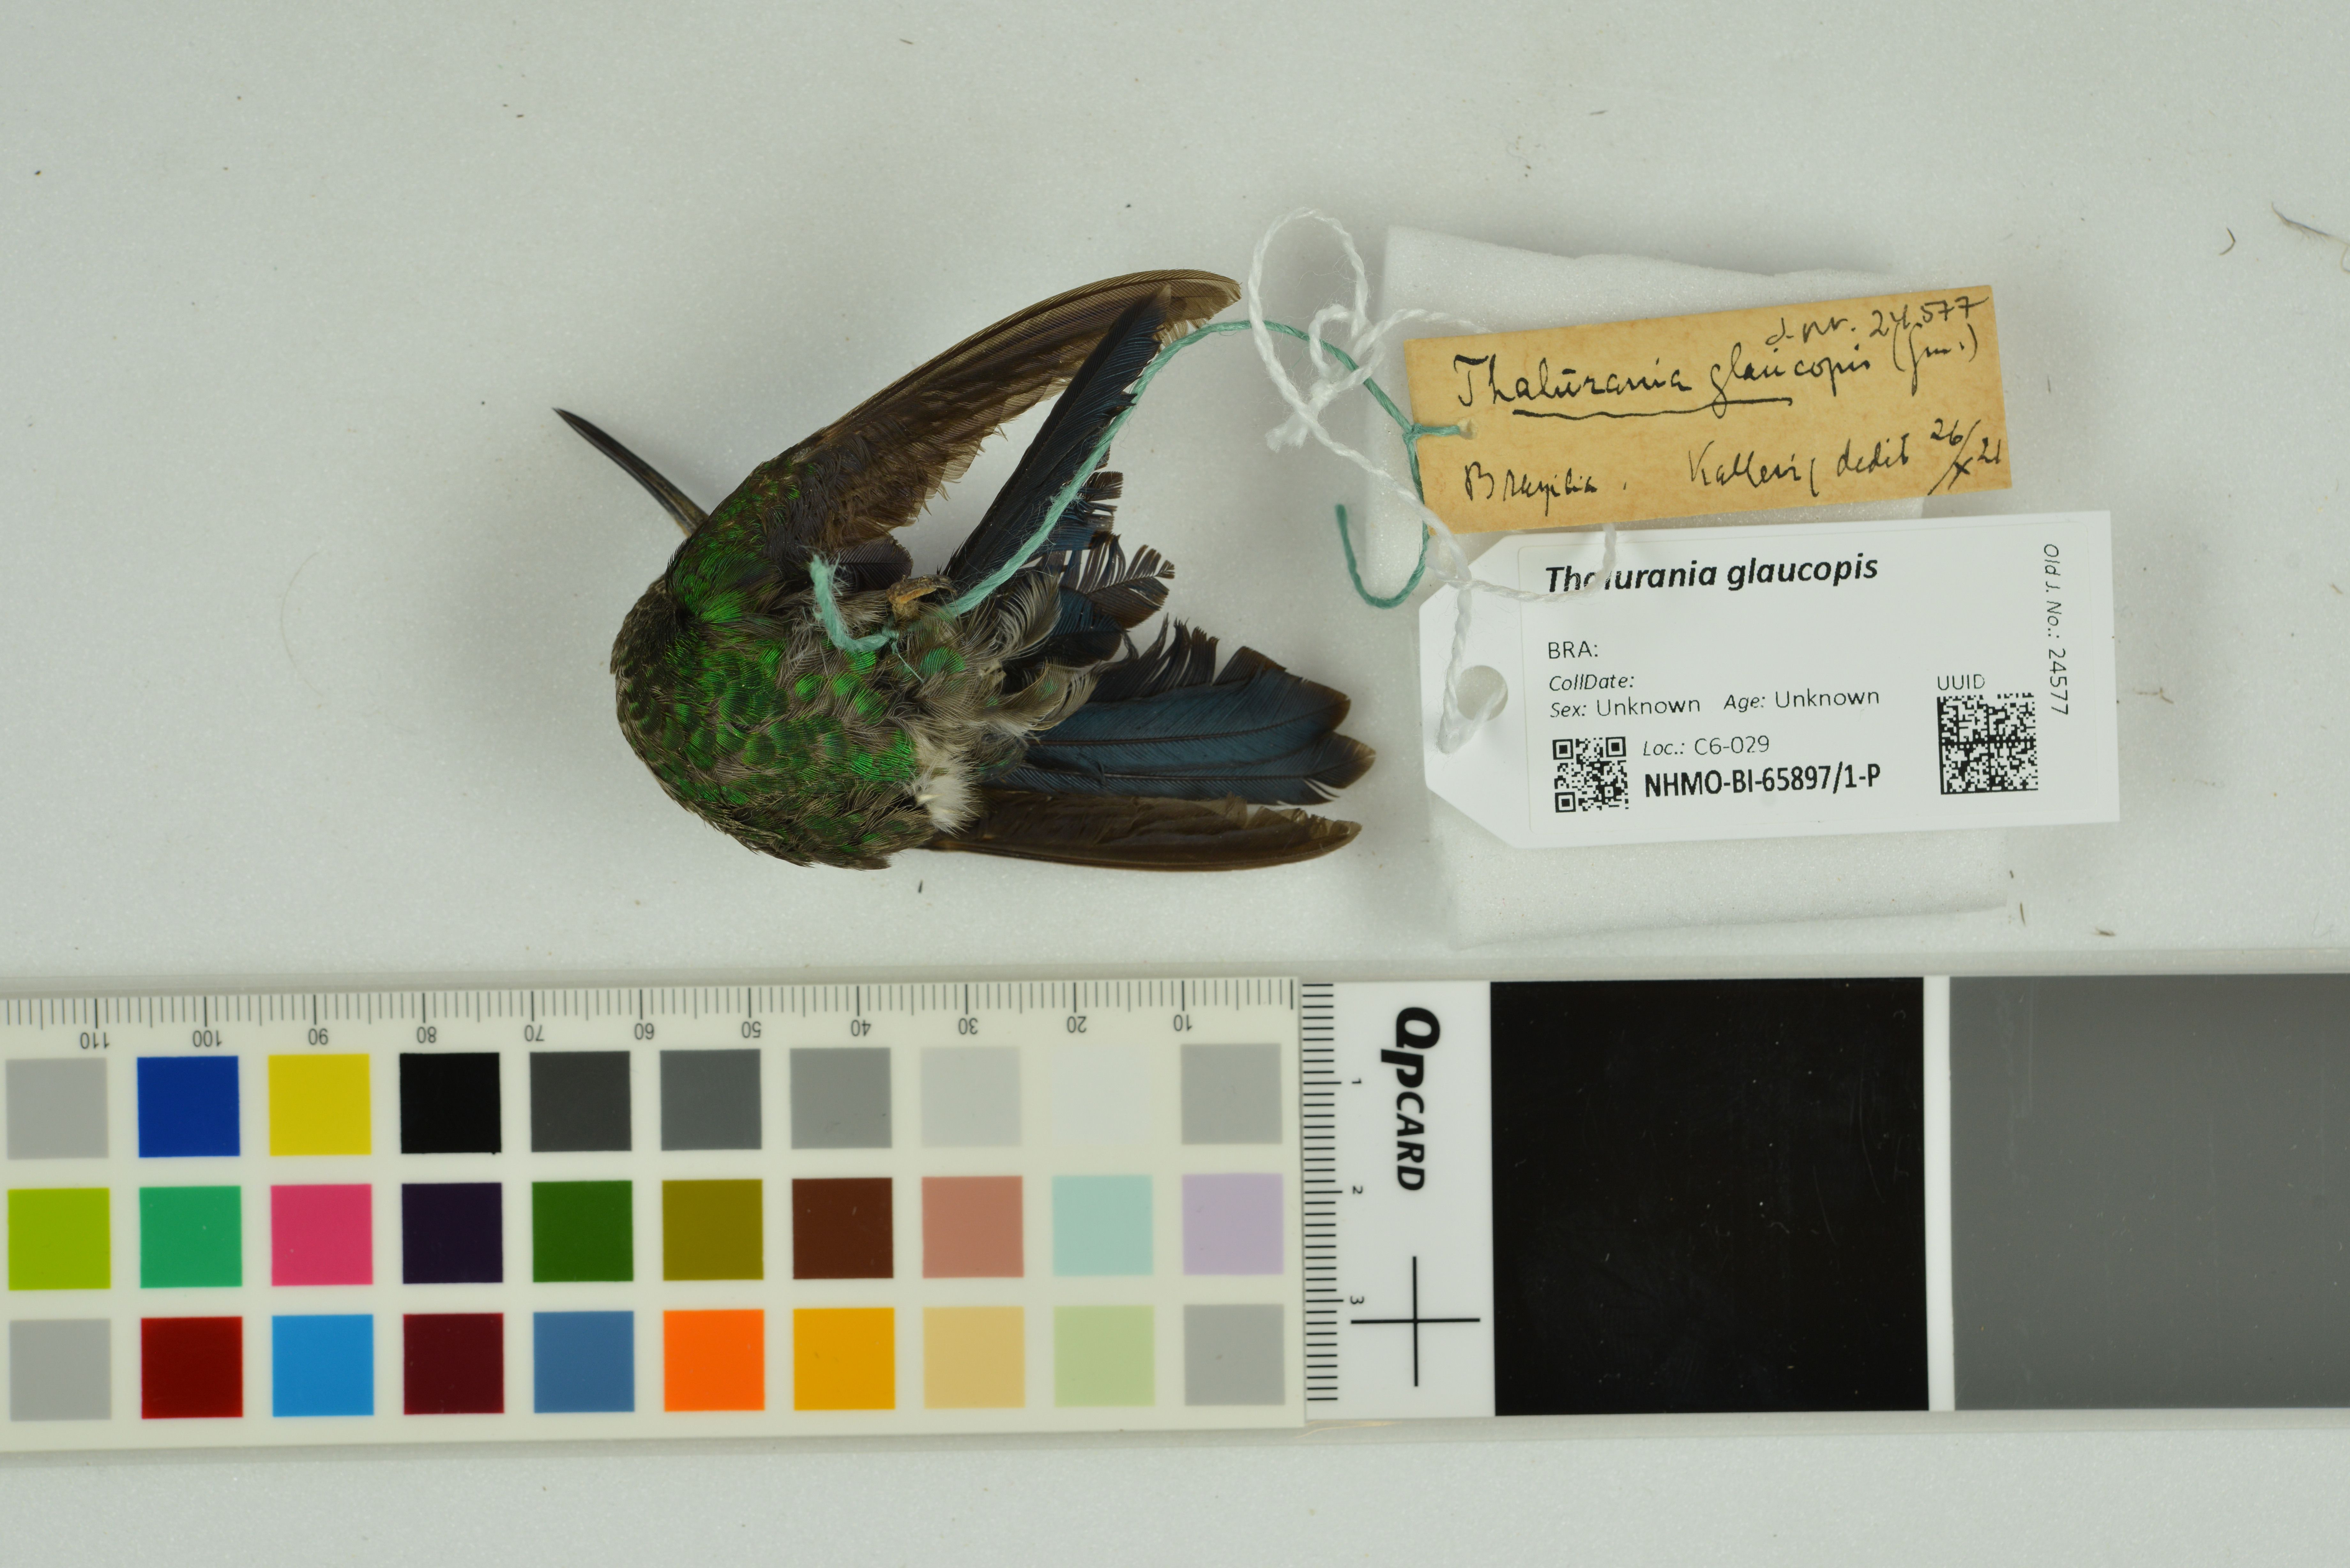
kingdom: Animalia
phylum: Chordata
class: Aves
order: Apodiformes
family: Trochilidae
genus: Thalurania
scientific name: Thalurania glaucopis
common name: Violet-capped woodnymph
